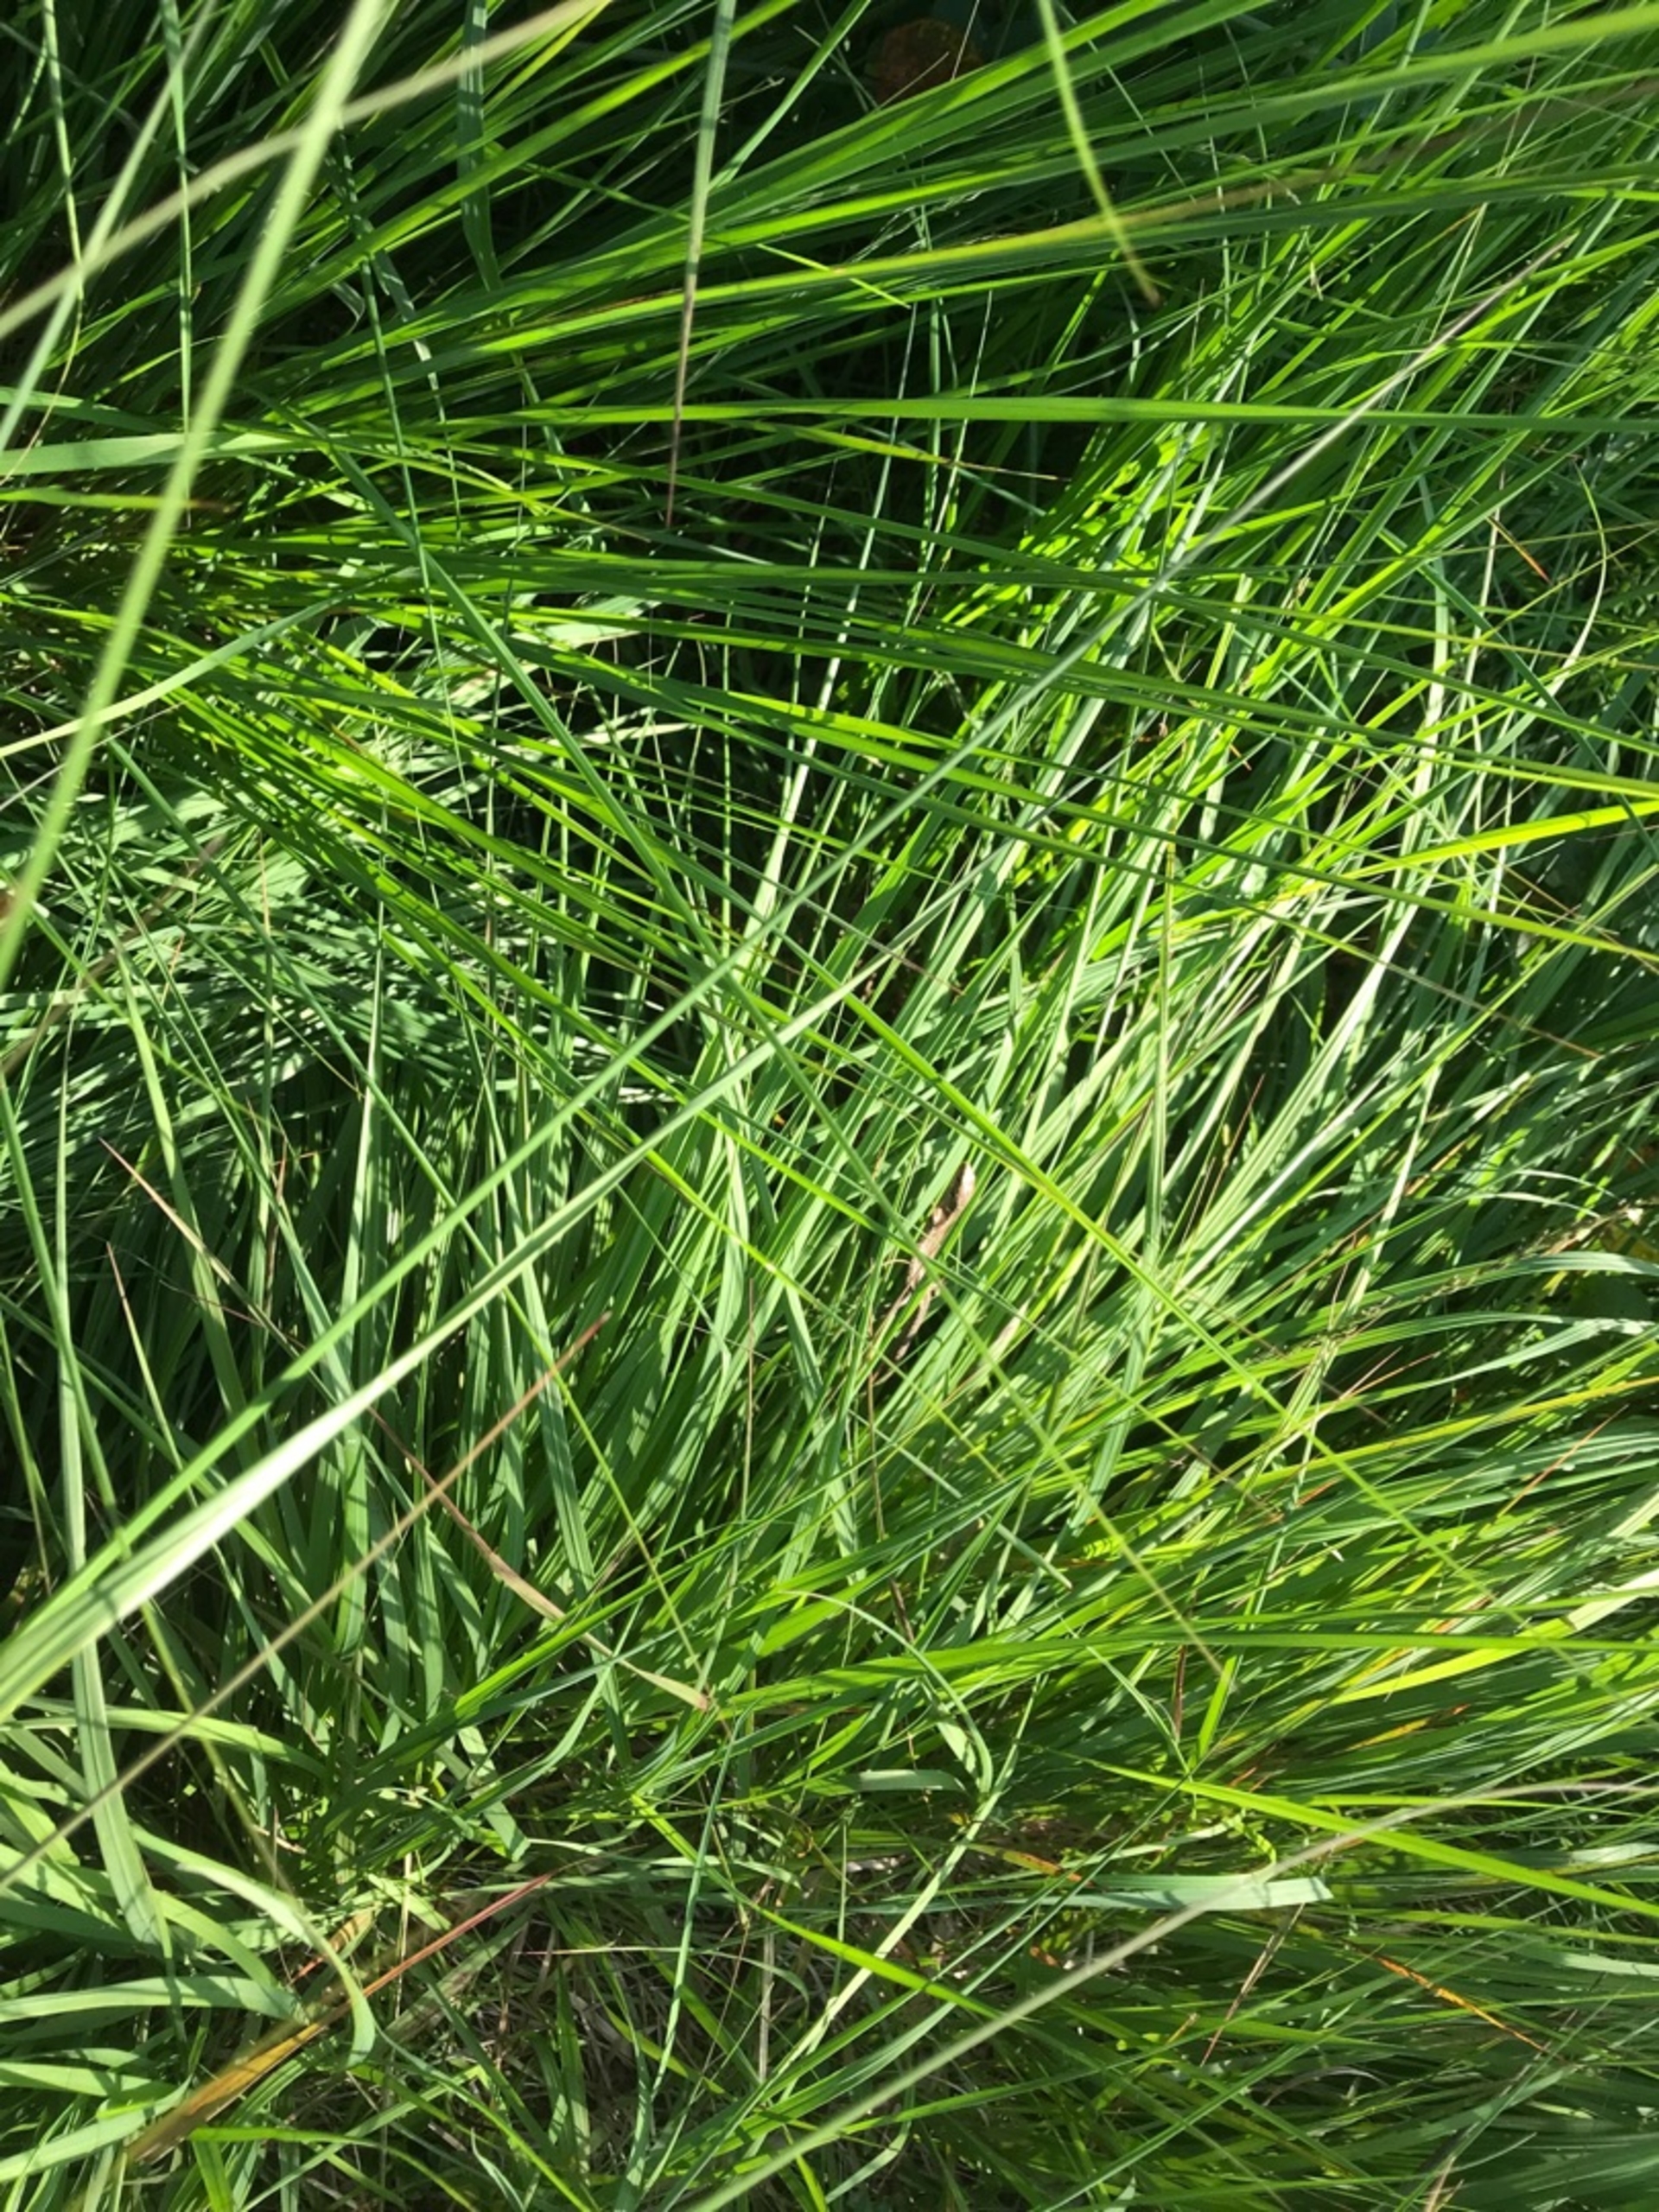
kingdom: Animalia
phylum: Chordata
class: Squamata
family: Lacertidae
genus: Zootoca
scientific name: Zootoca vivipara
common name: Skovfirben
